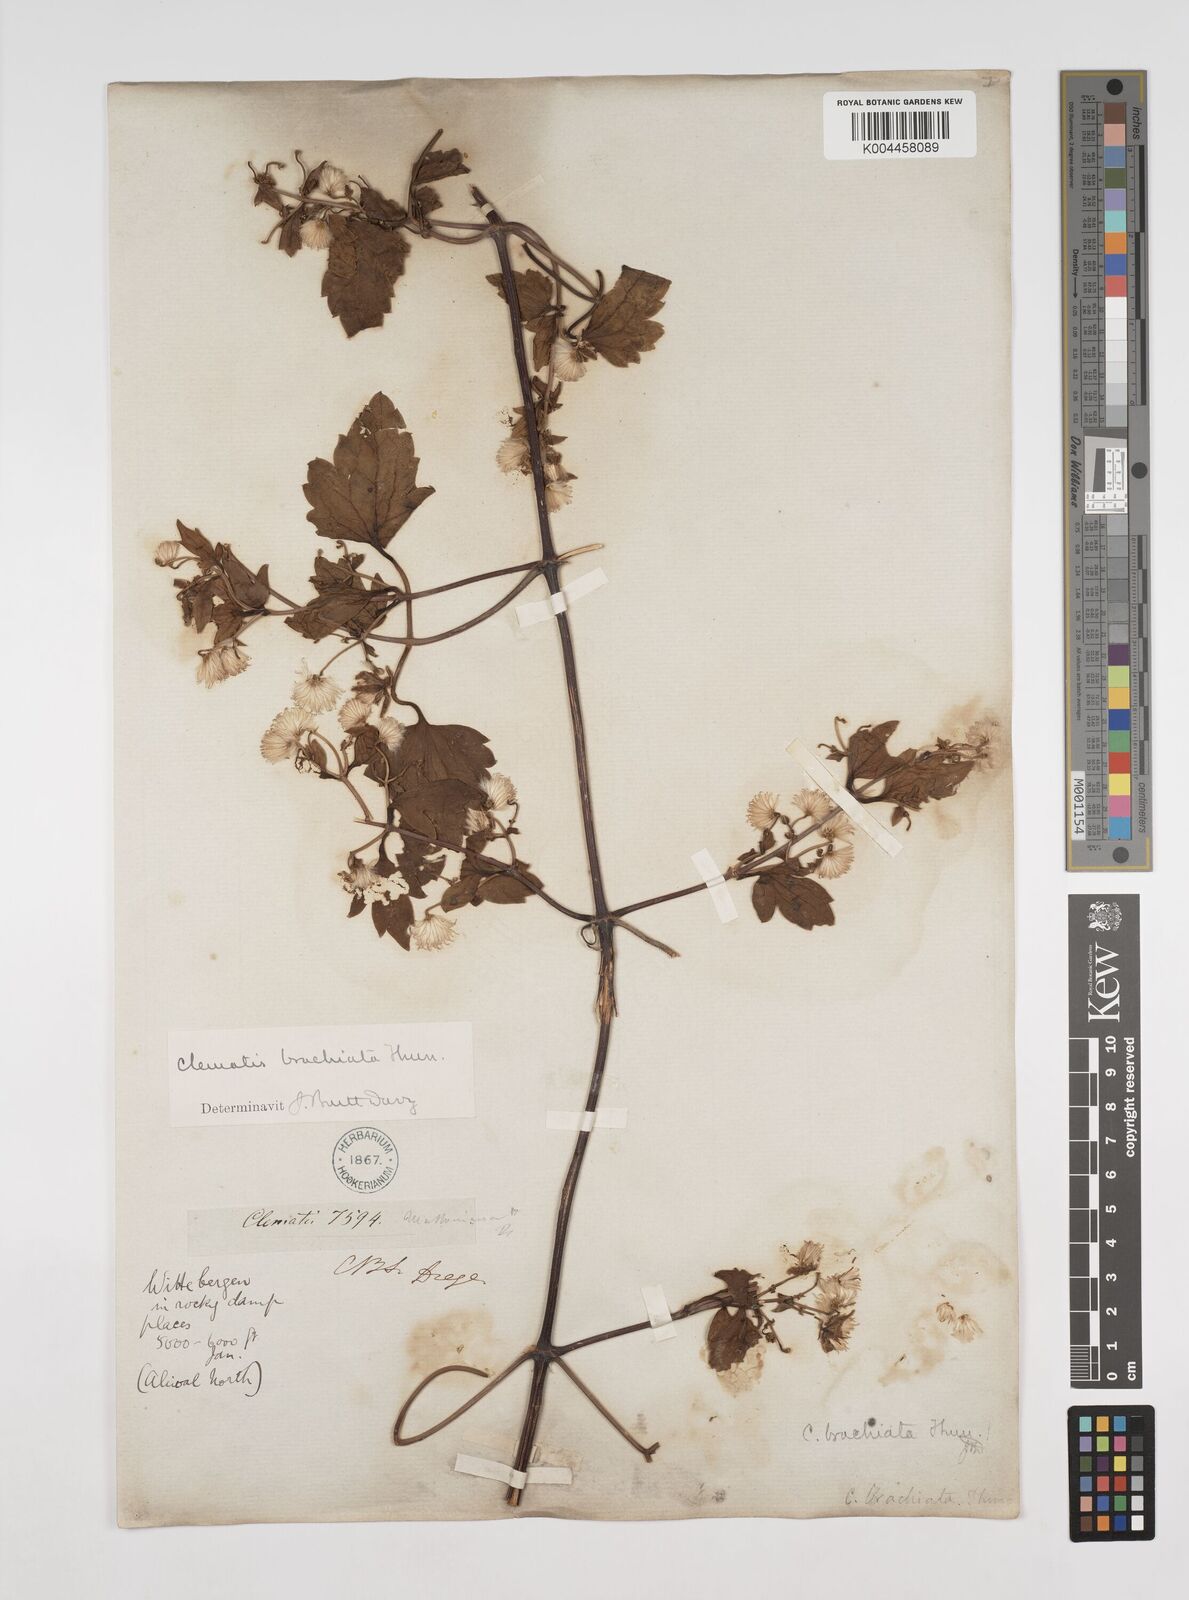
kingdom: Plantae
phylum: Tracheophyta
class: Magnoliopsida
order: Ranunculales
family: Ranunculaceae
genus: Clematis
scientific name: Clematis brachiata
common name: Traveler's-joy
